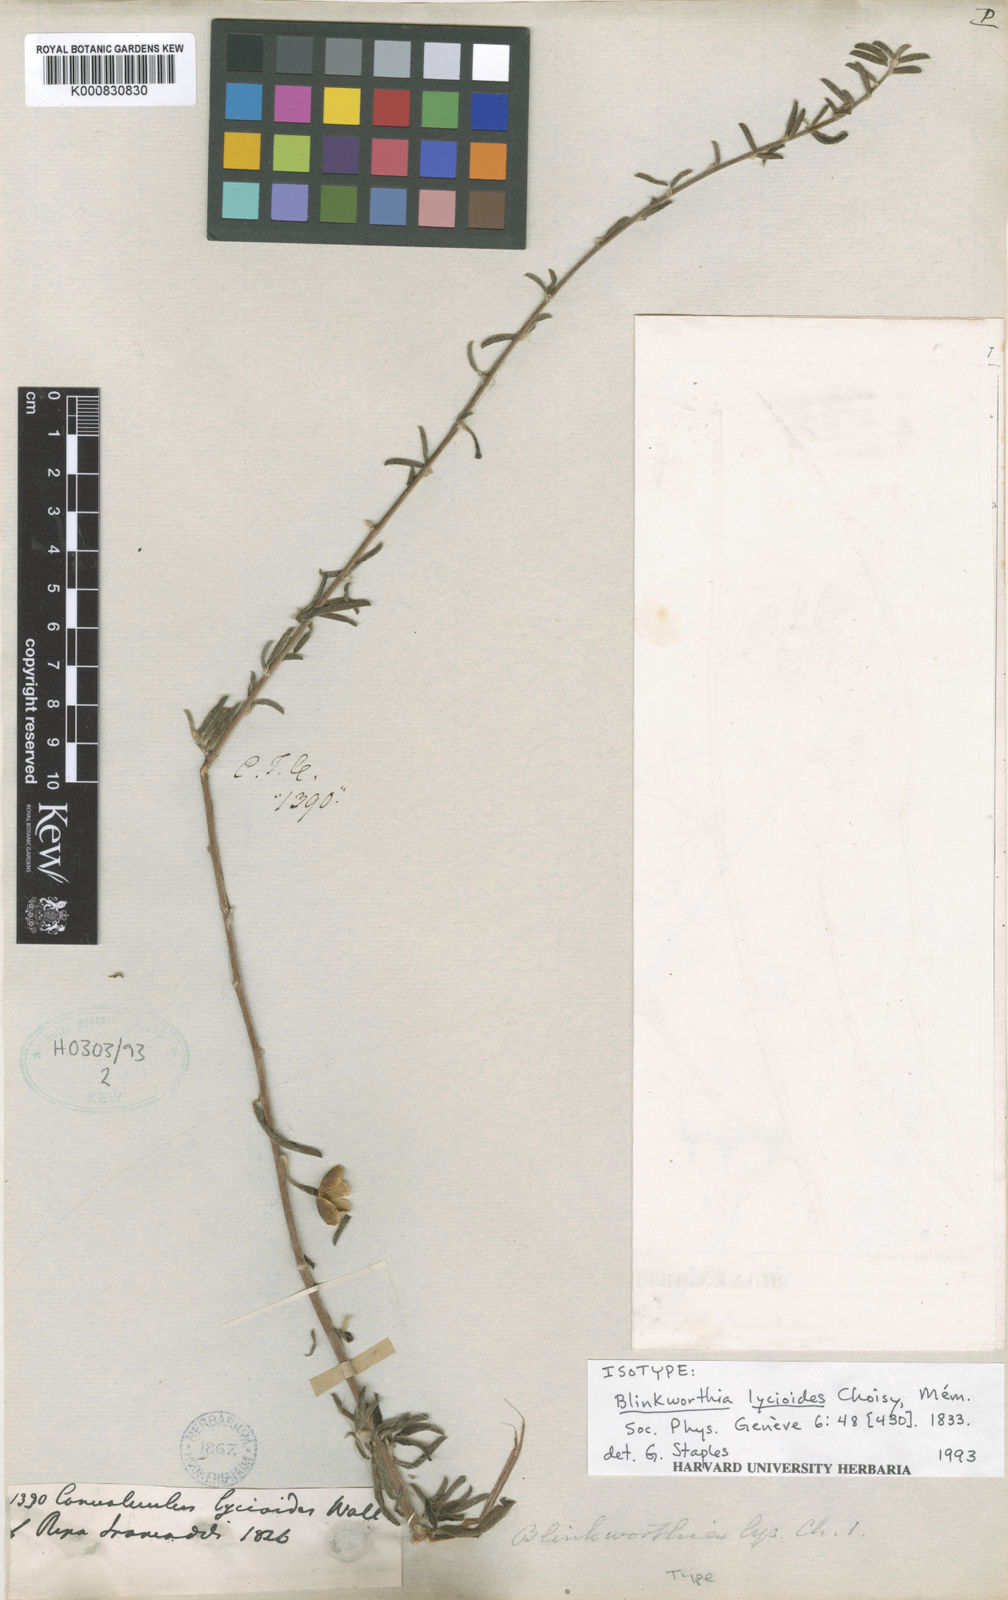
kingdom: Plantae
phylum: Tracheophyta
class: Magnoliopsida
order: Solanales
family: Convolvulaceae
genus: Blinkworthia
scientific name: Blinkworthia lycioides
